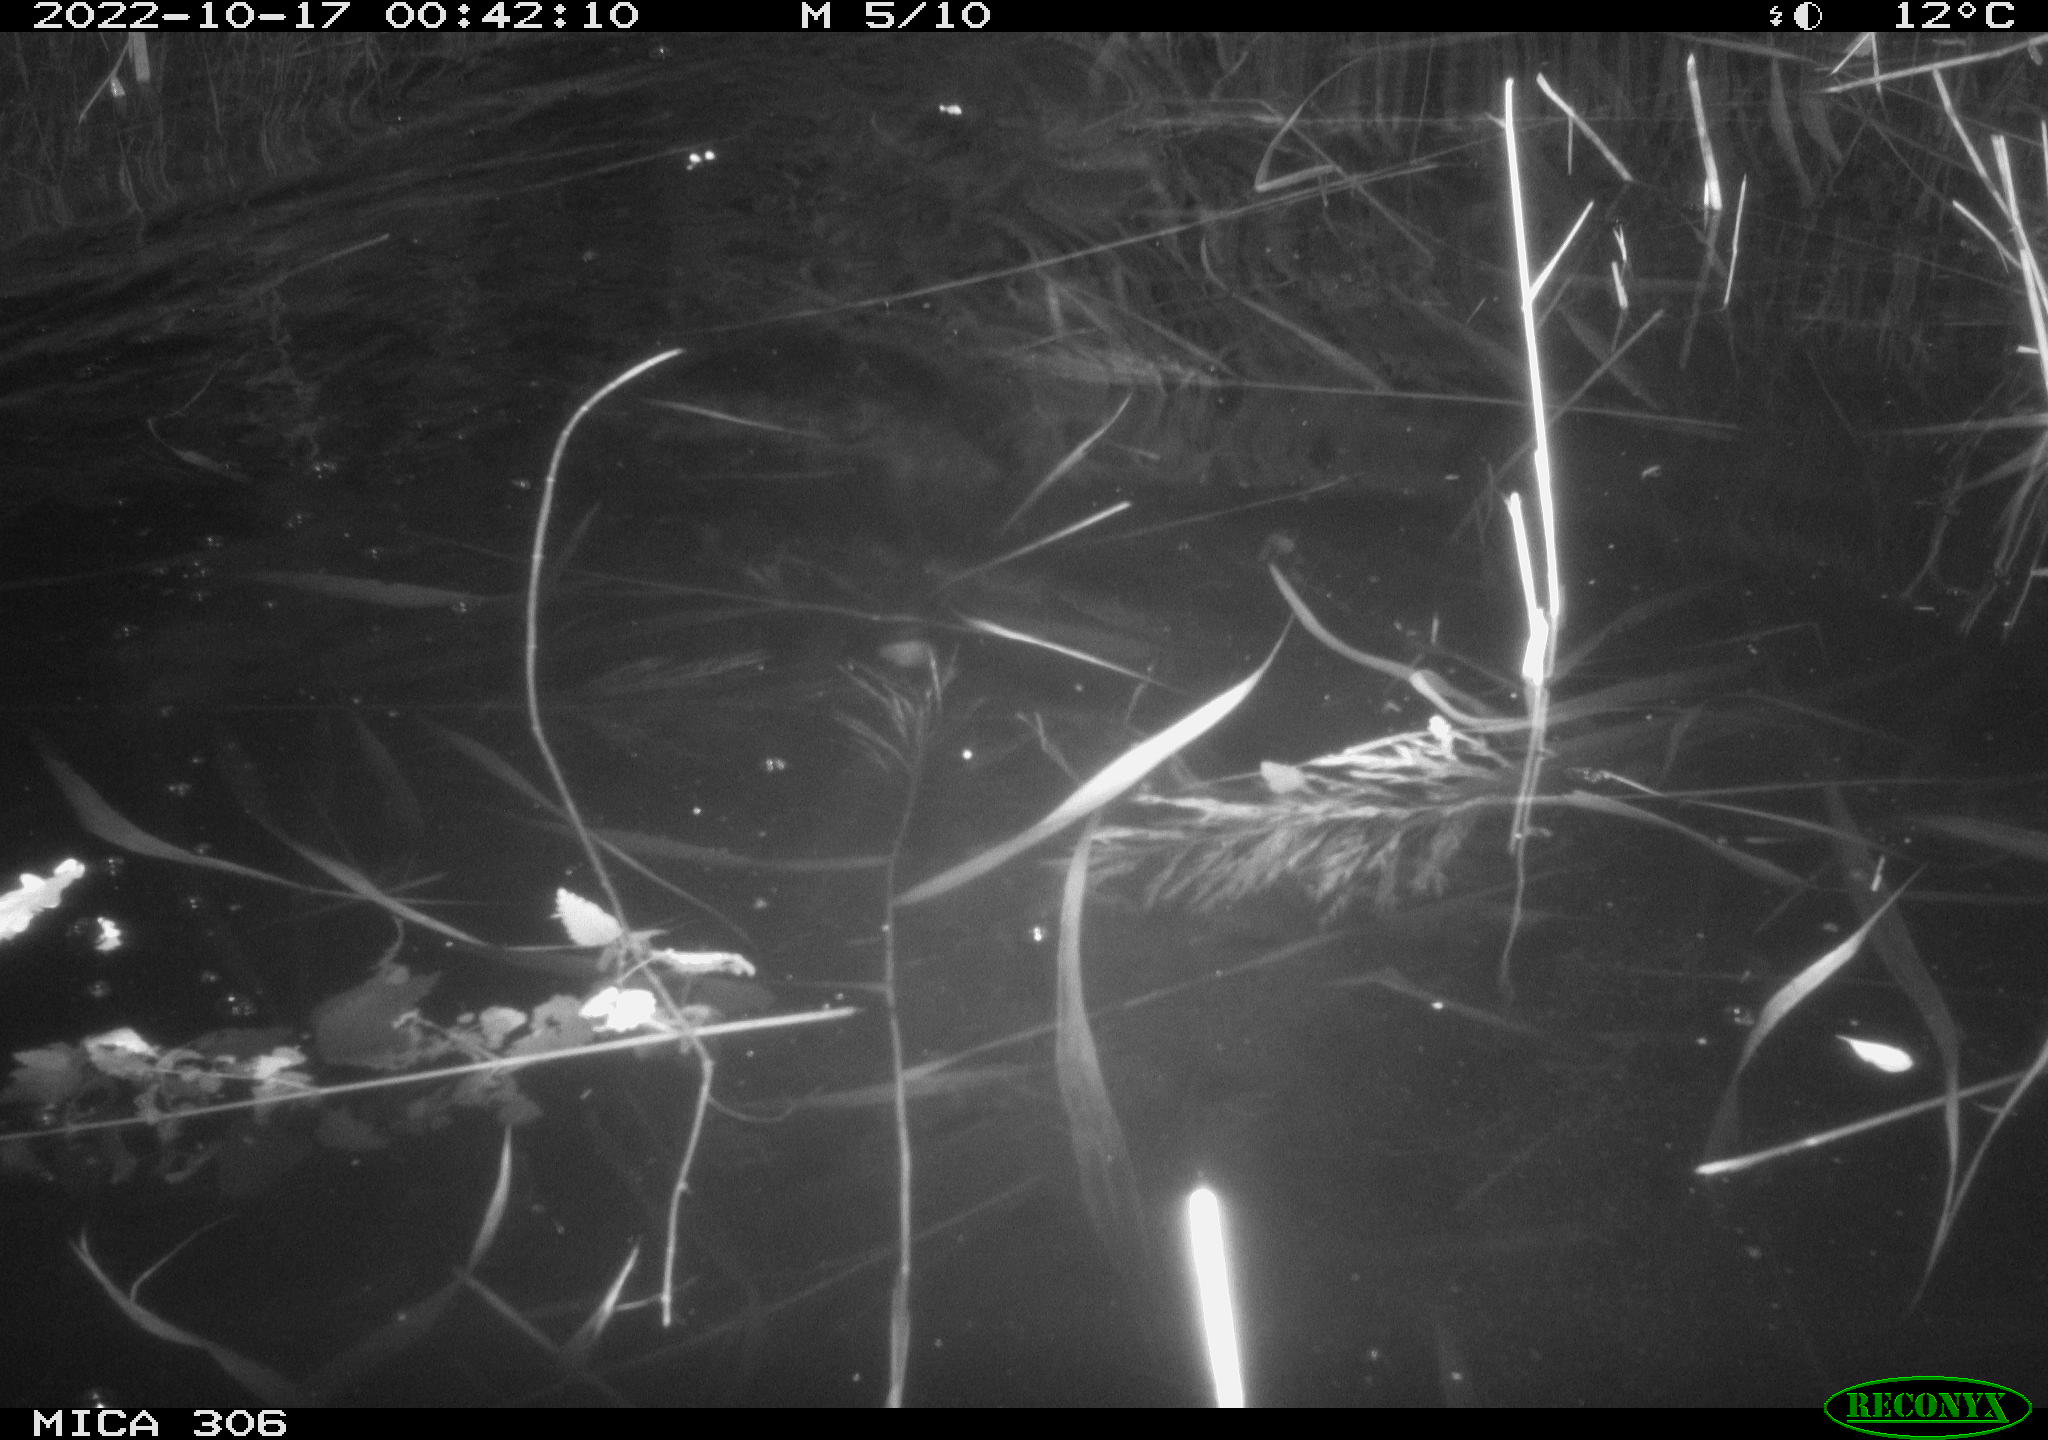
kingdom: Animalia
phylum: Chordata
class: Mammalia
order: Rodentia
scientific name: Rodentia
